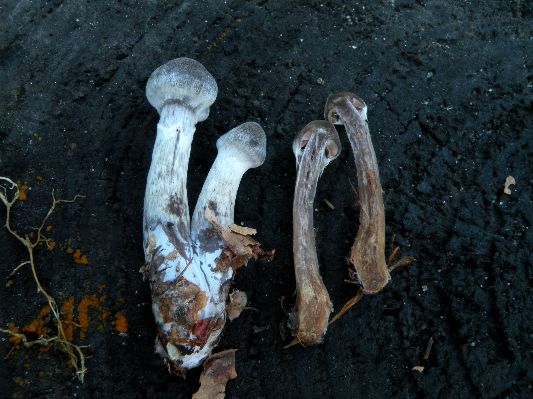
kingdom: Fungi
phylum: Basidiomycota
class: Agaricomycetes
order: Agaricales
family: Cortinariaceae
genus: Cortinarius
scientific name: Cortinarius hemitrichus
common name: hvidfnugget slørhat
